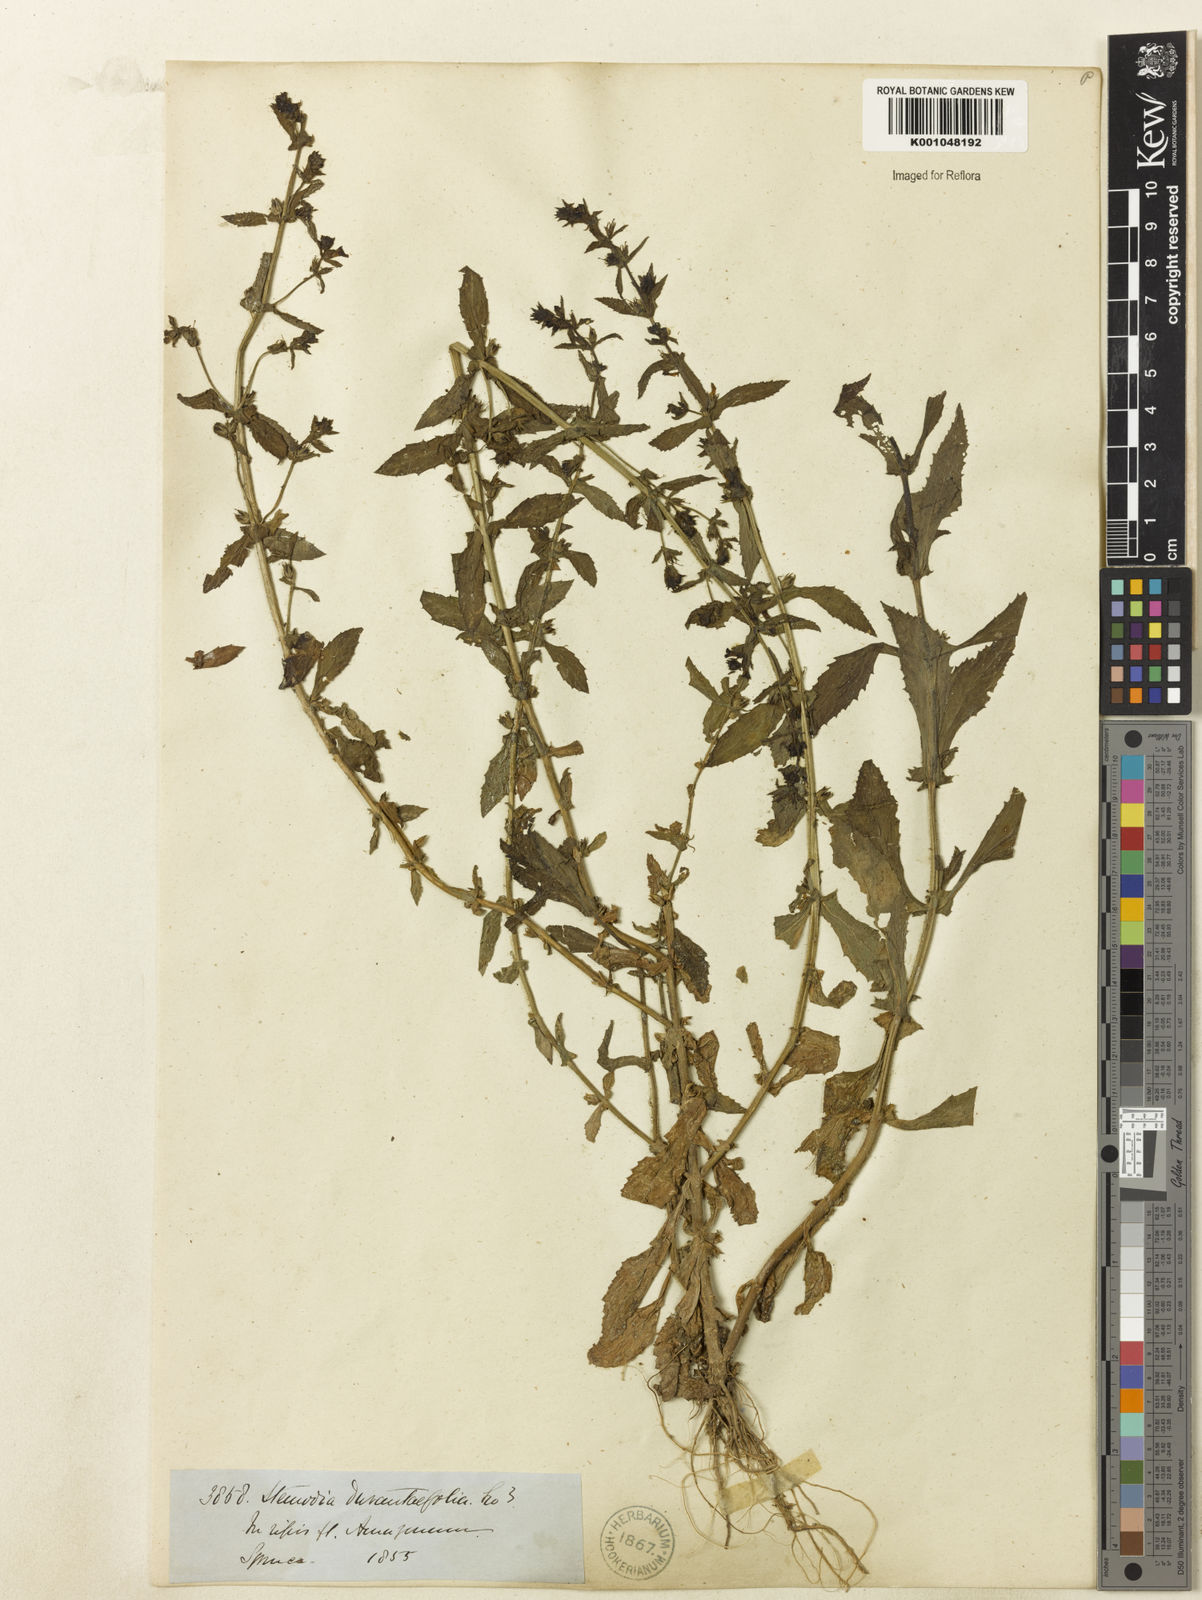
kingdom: Plantae
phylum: Tracheophyta
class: Magnoliopsida
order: Lamiales
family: Plantaginaceae
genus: Stemodia
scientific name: Stemodia durantifolia
